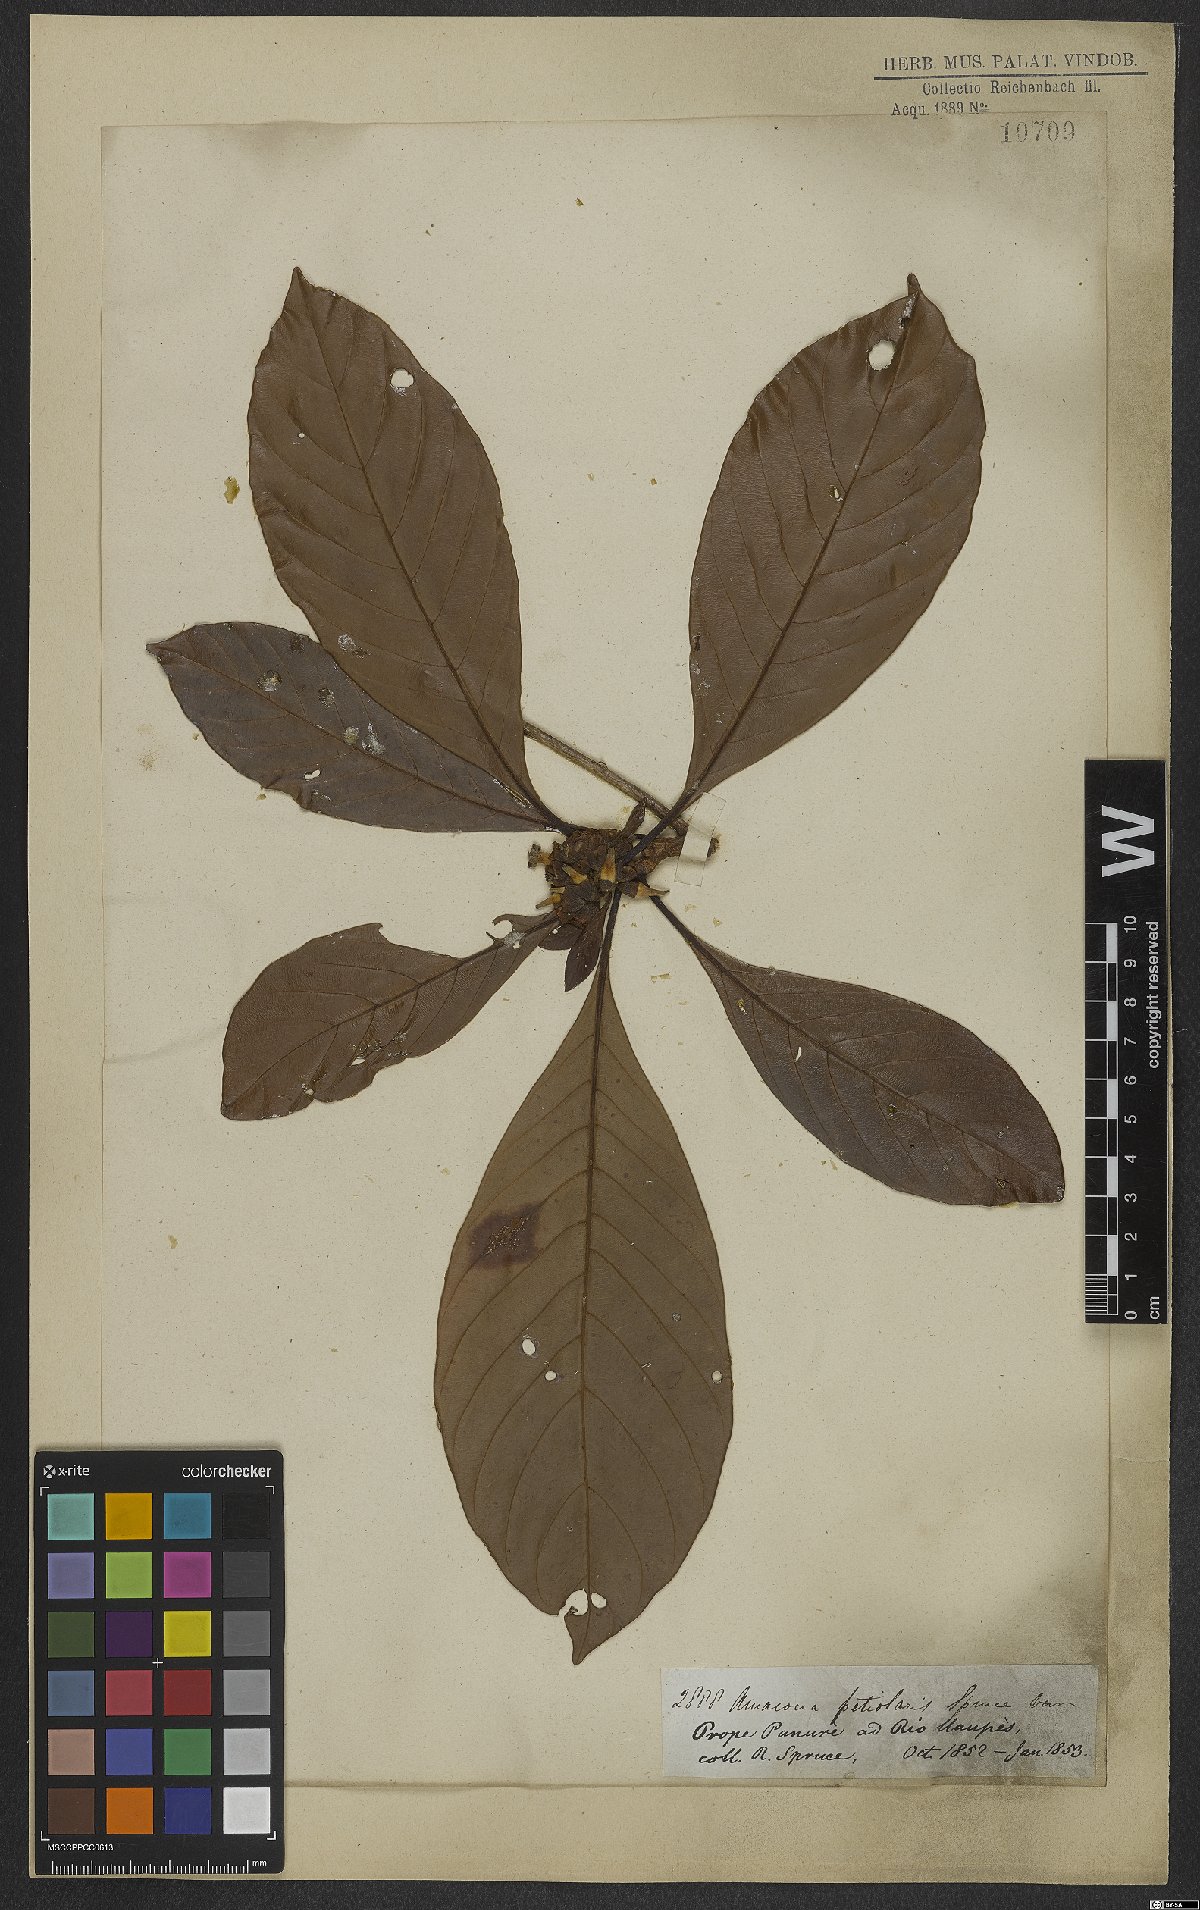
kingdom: Plantae
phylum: Tracheophyta
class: Magnoliopsida
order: Gentianales
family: Rubiaceae
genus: Duroia
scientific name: Duroia petiolaris
